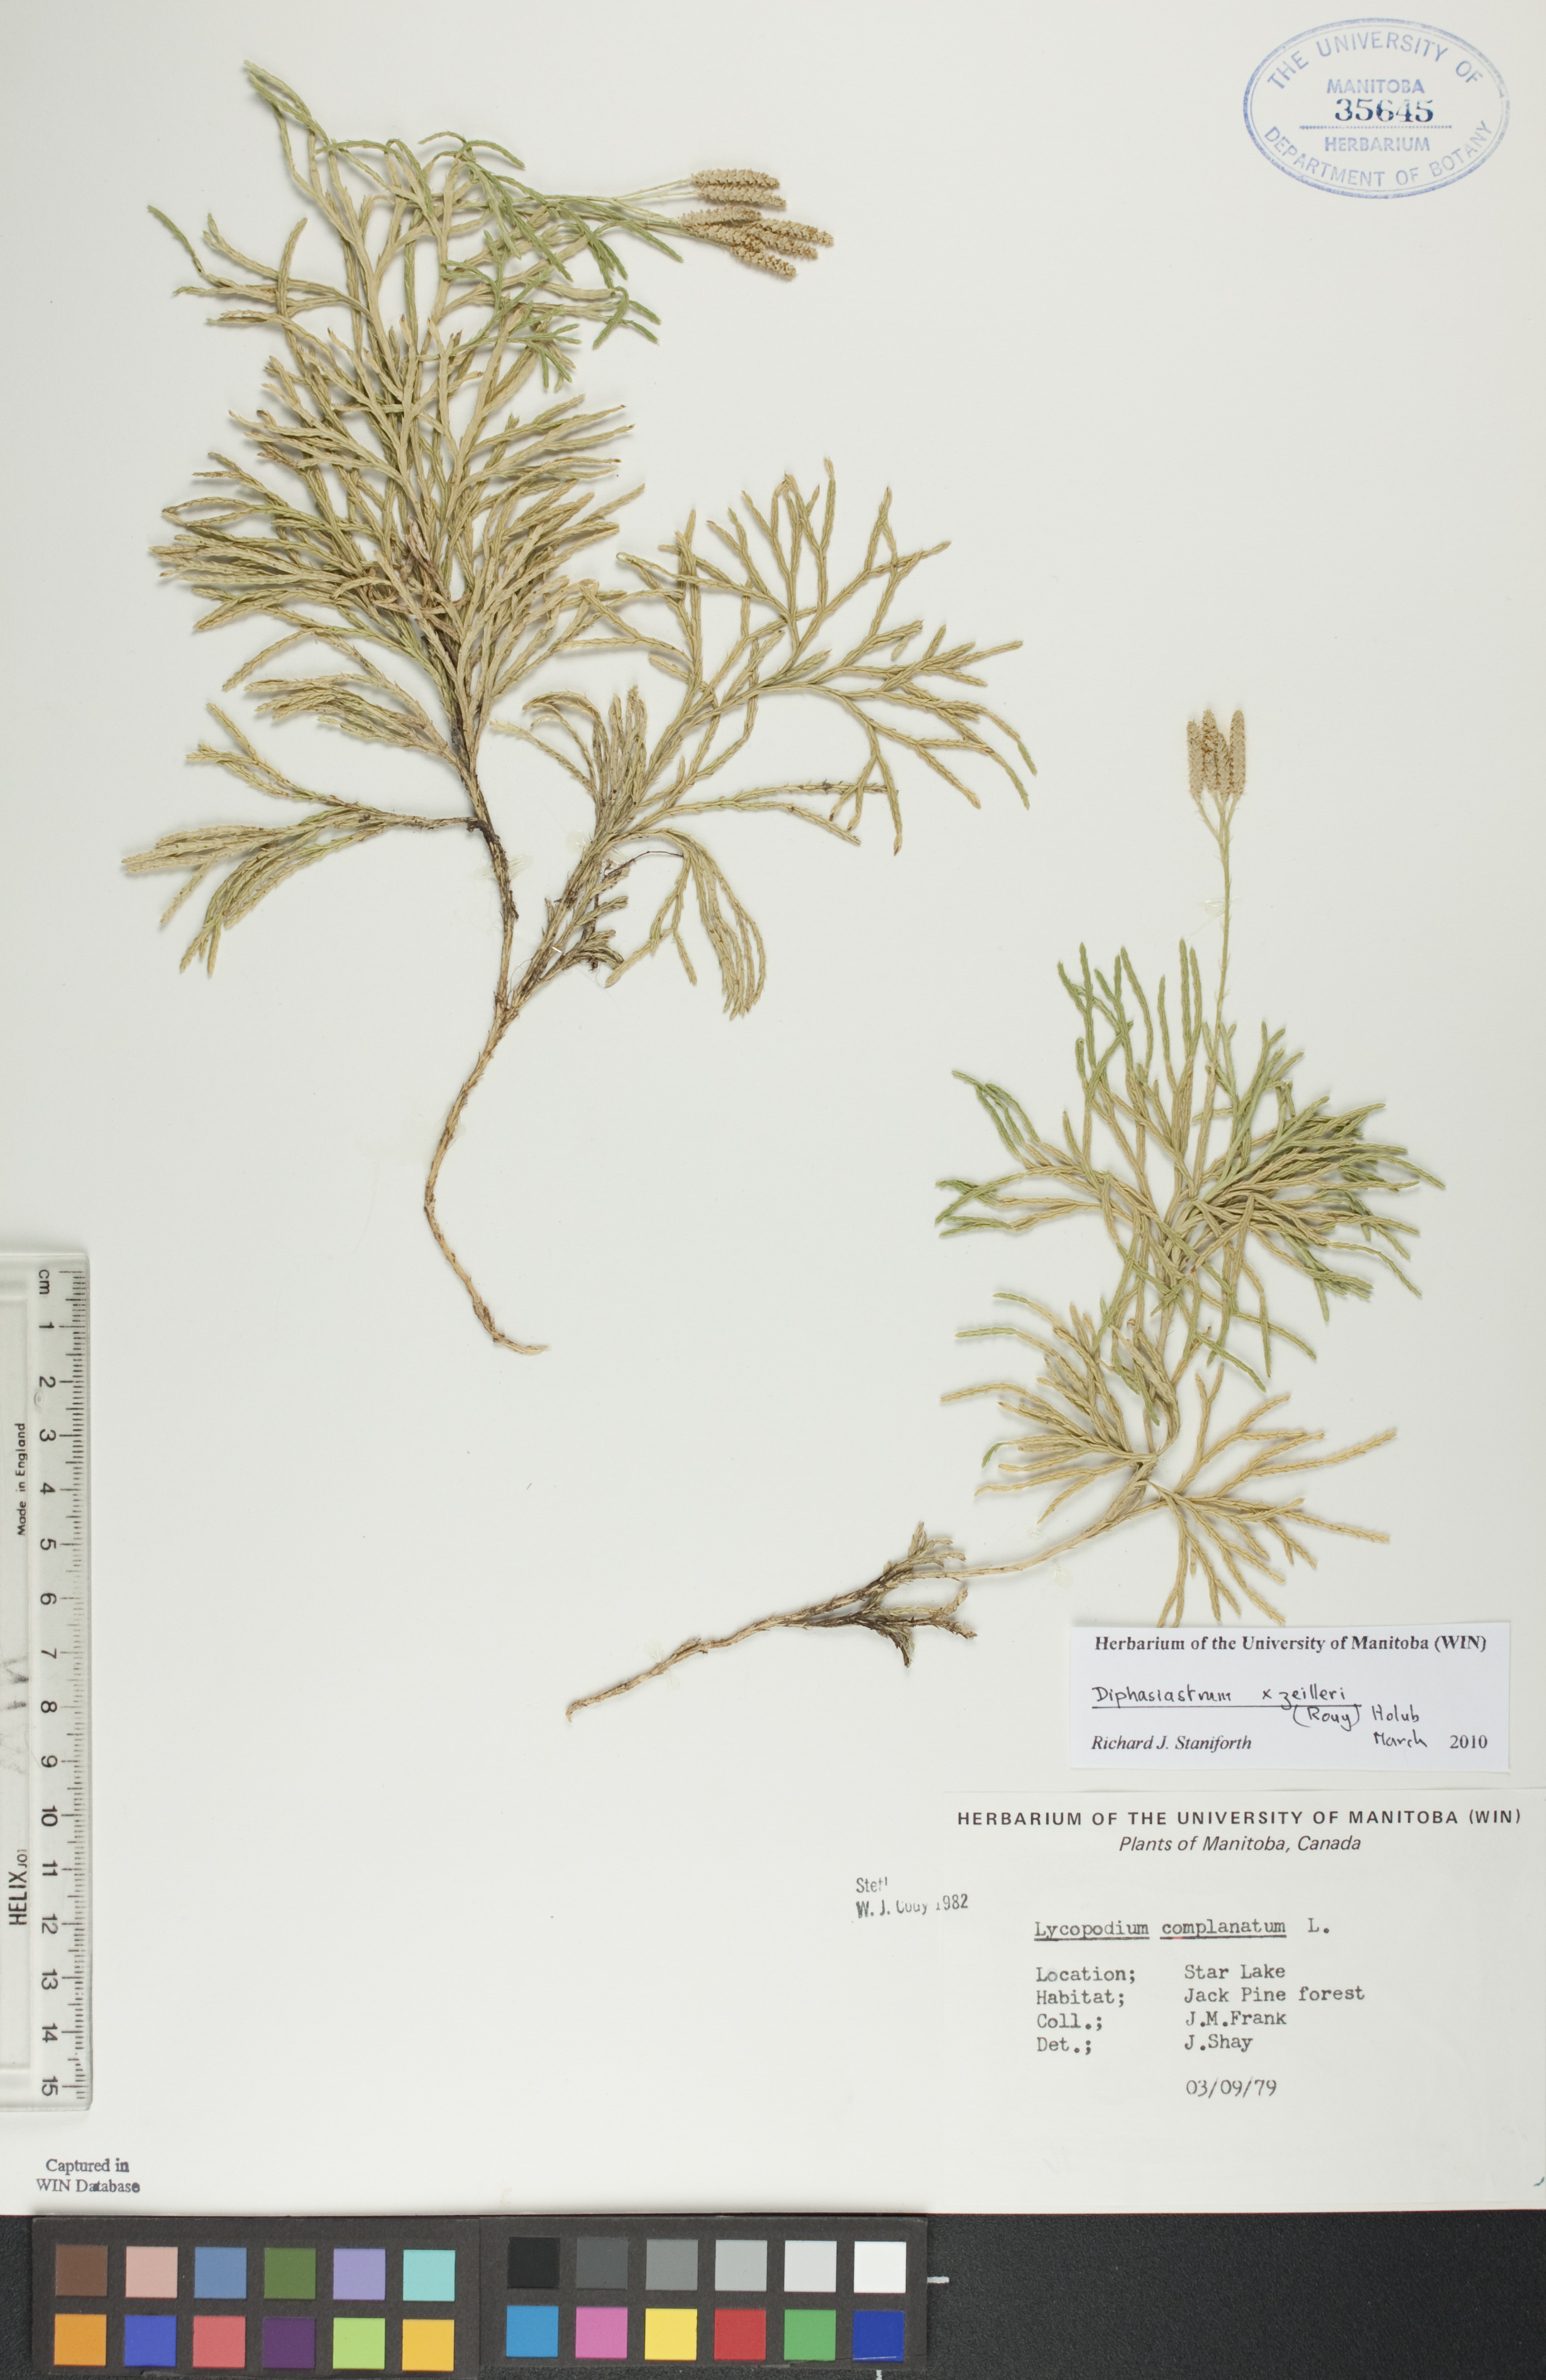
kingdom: Plantae
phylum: Tracheophyta
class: Lycopodiopsida
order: Lycopodiales
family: Lycopodiaceae
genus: Diphasiastrum
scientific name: Diphasiastrum zeilleri
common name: Zeiller's clubmoss
